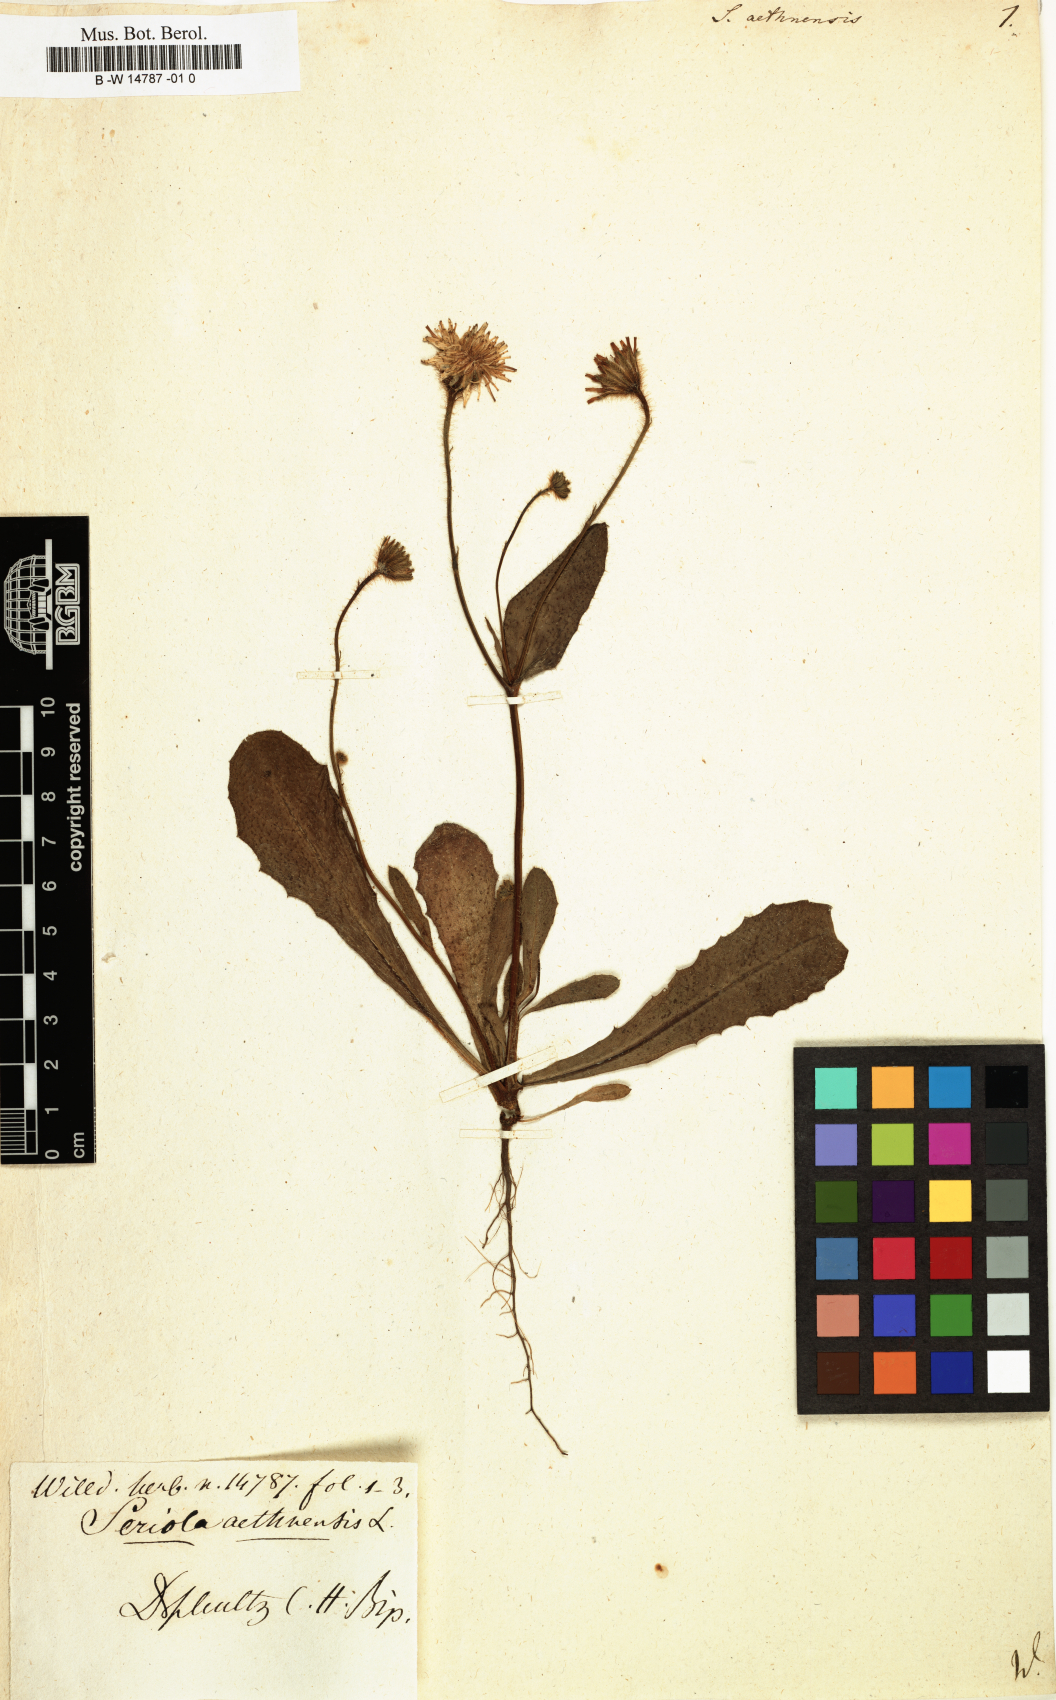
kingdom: Plantae
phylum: Tracheophyta
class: Magnoliopsida
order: Asterales
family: Asteraceae
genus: Achyrophorus
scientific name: Achyrophorus valdesii
